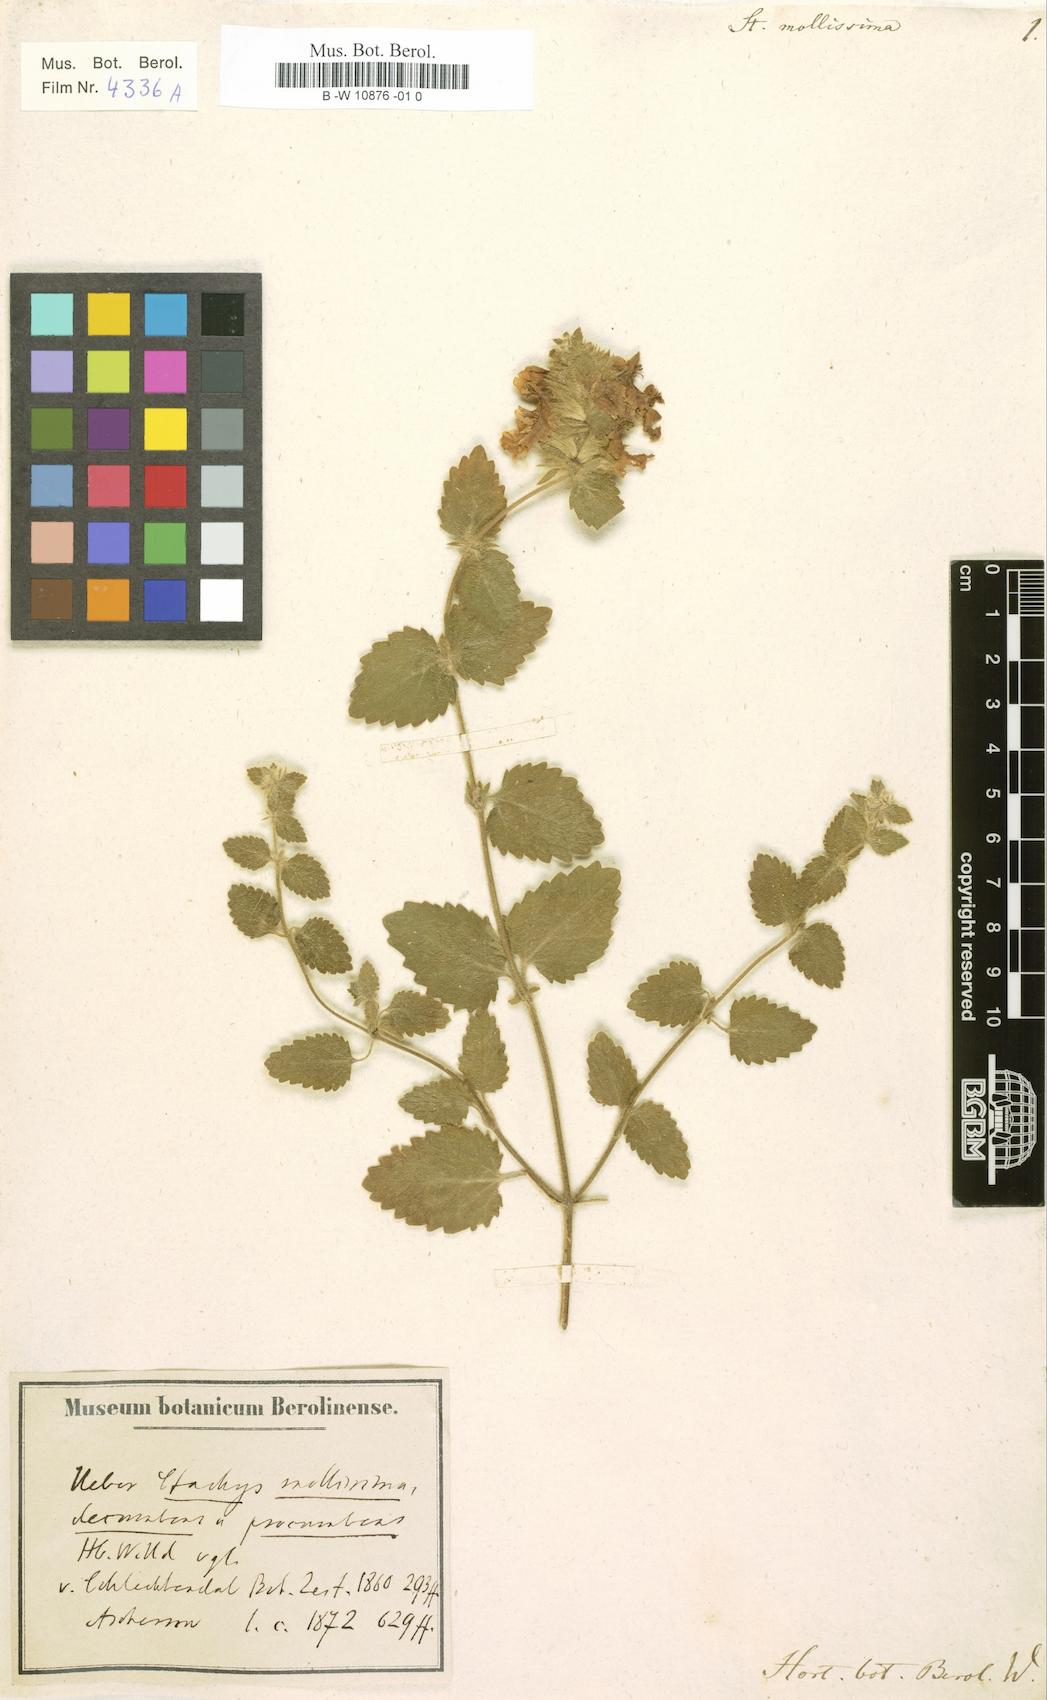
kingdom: Plantae
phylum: Tracheophyta
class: Magnoliopsida
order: Lamiales
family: Lamiaceae
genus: Stachys
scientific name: Stachys mollissima
